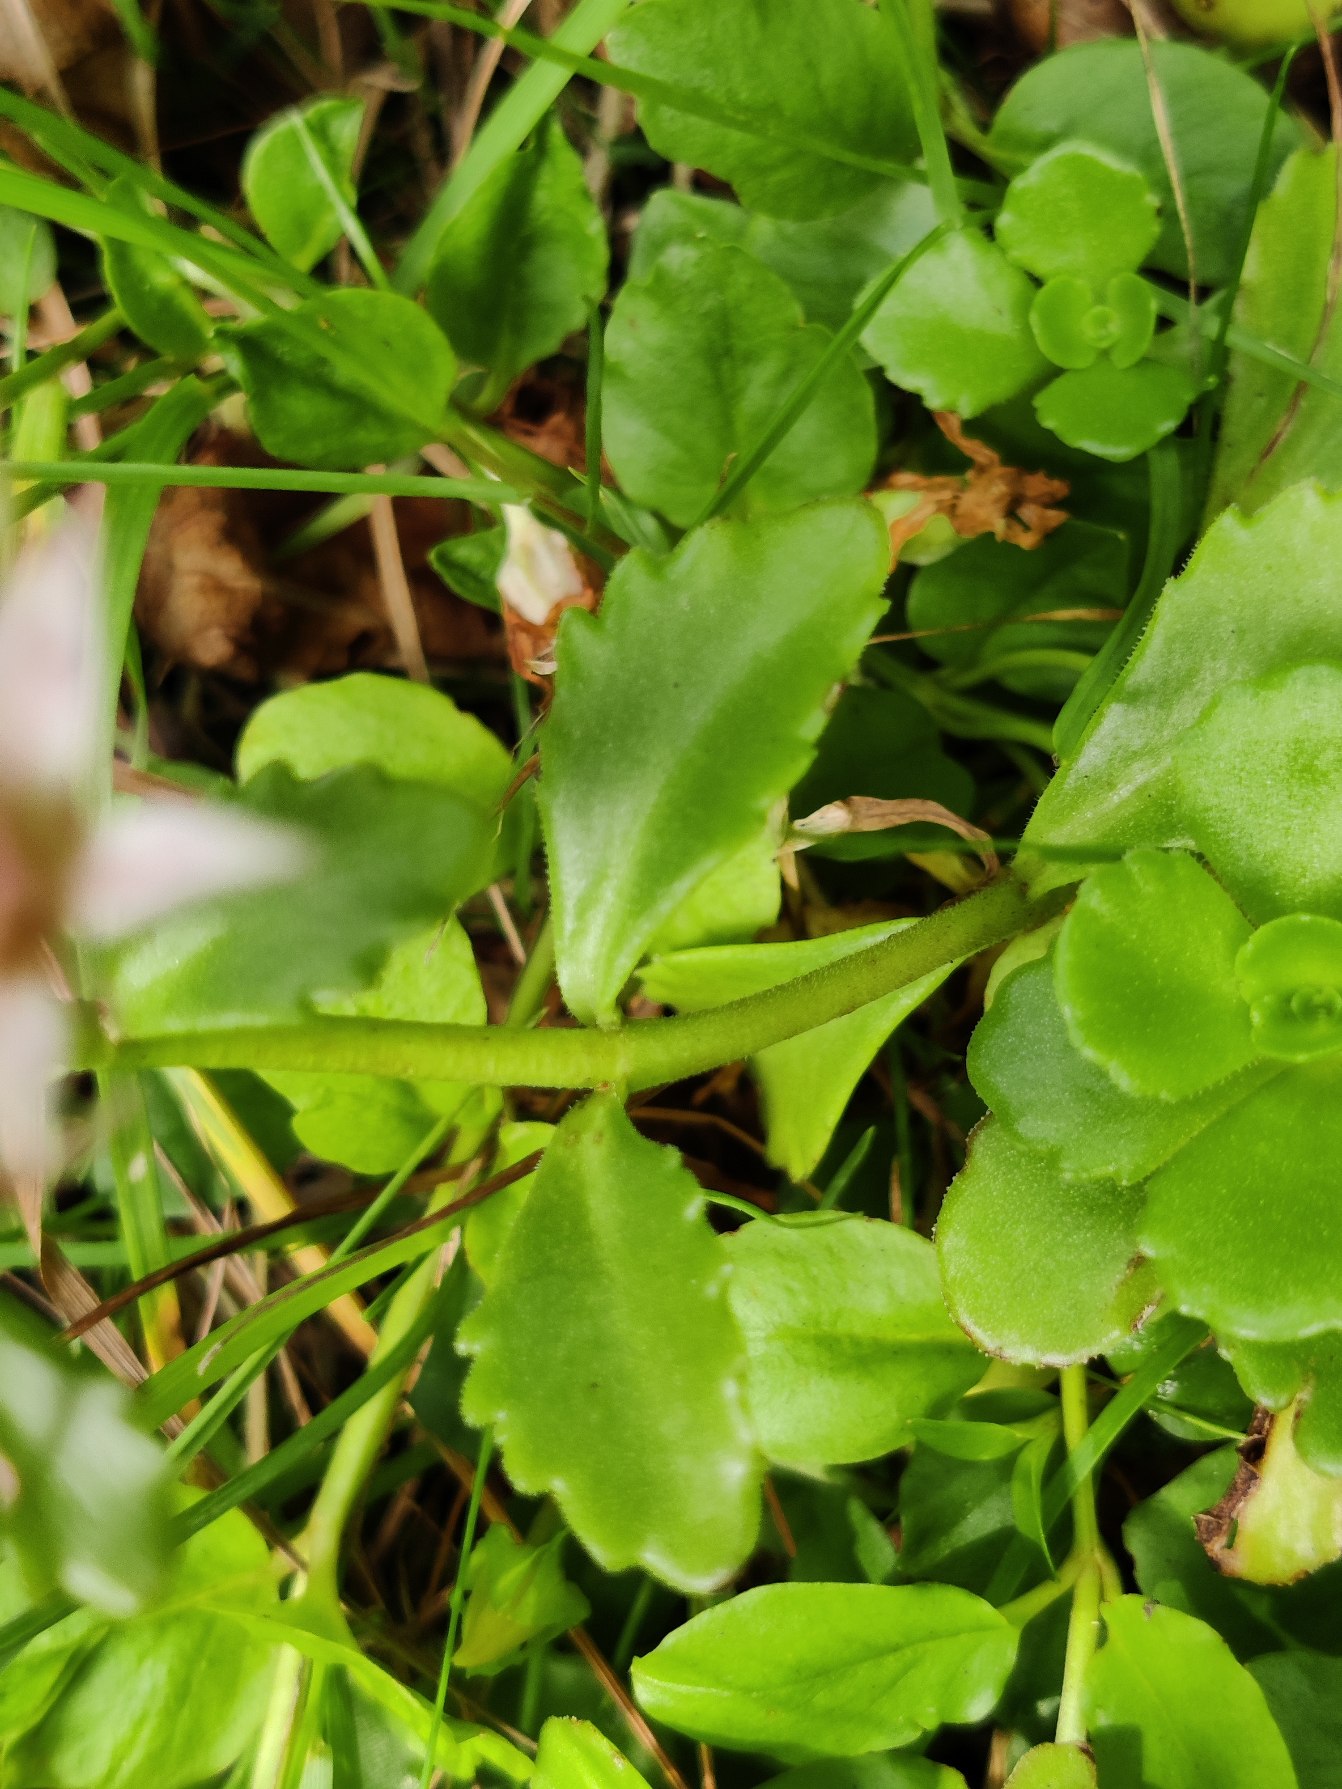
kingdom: Plantae
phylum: Tracheophyta
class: Magnoliopsida
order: Saxifragales
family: Crassulaceae
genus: Phedimus
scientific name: Phedimus spurius
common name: Rød stenurt
